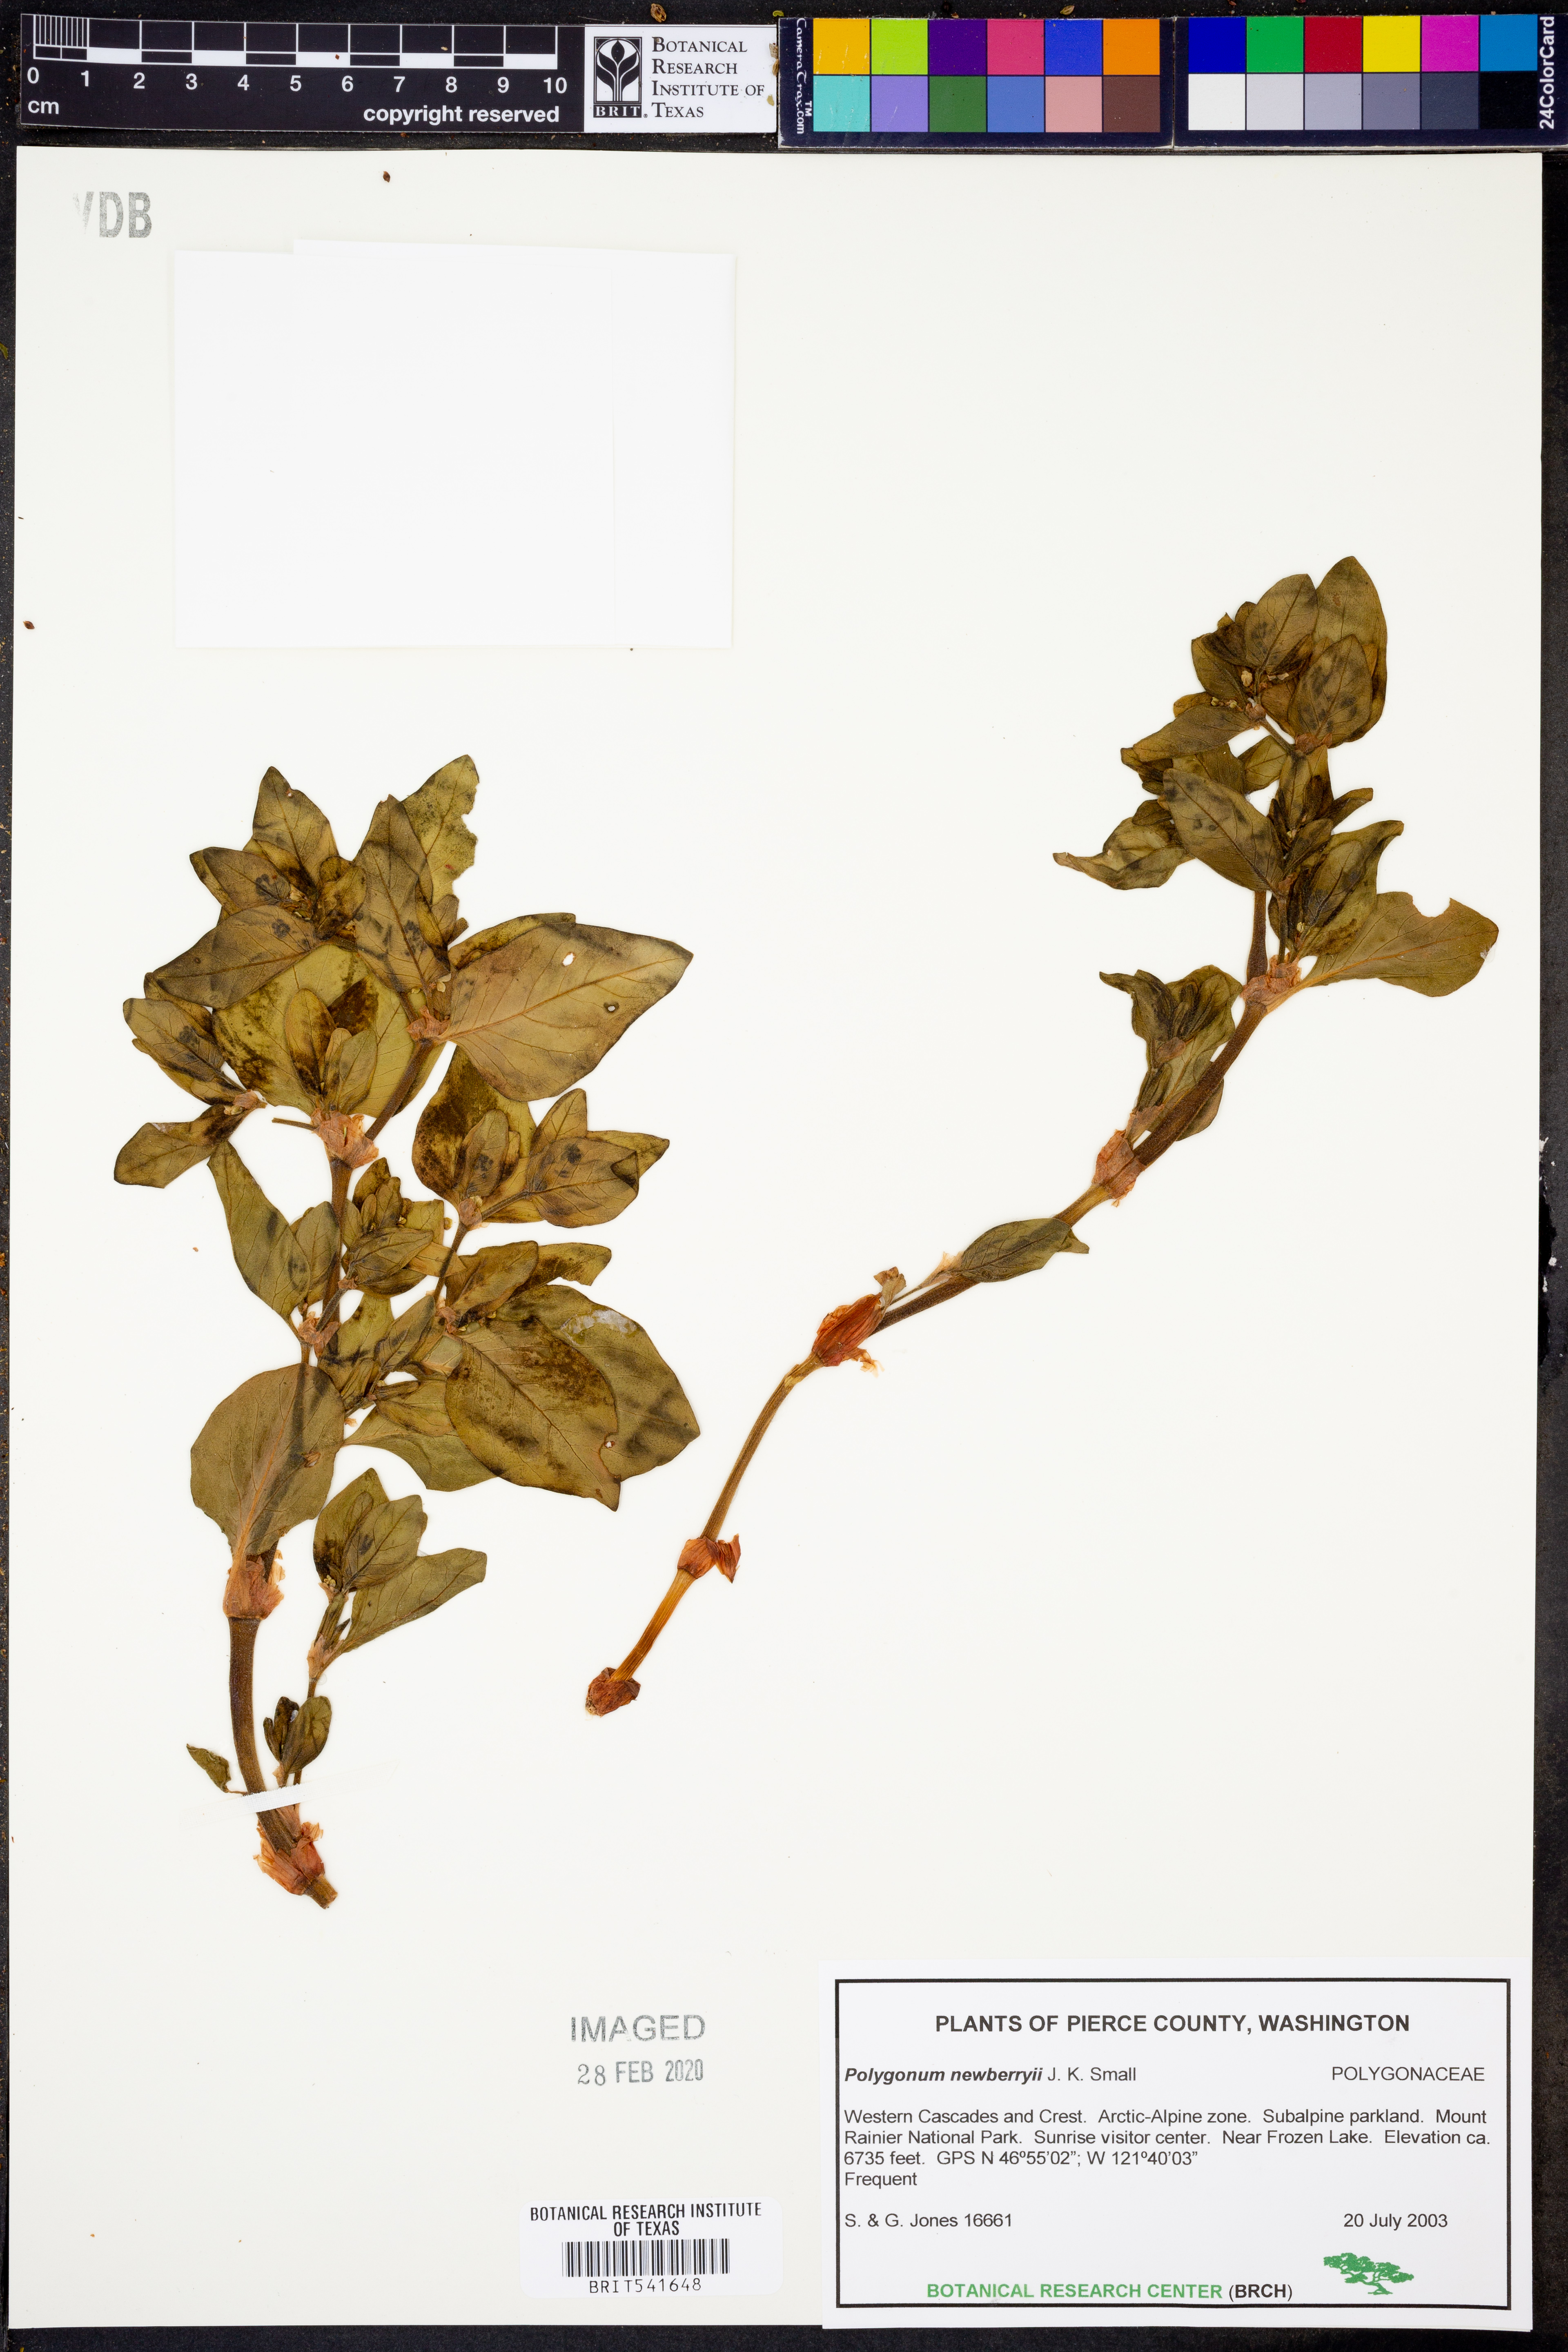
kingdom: Plantae
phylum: Tracheophyta
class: Magnoliopsida
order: Caryophyllales
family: Polygonaceae
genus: Koenigia
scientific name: Koenigia davisiae
